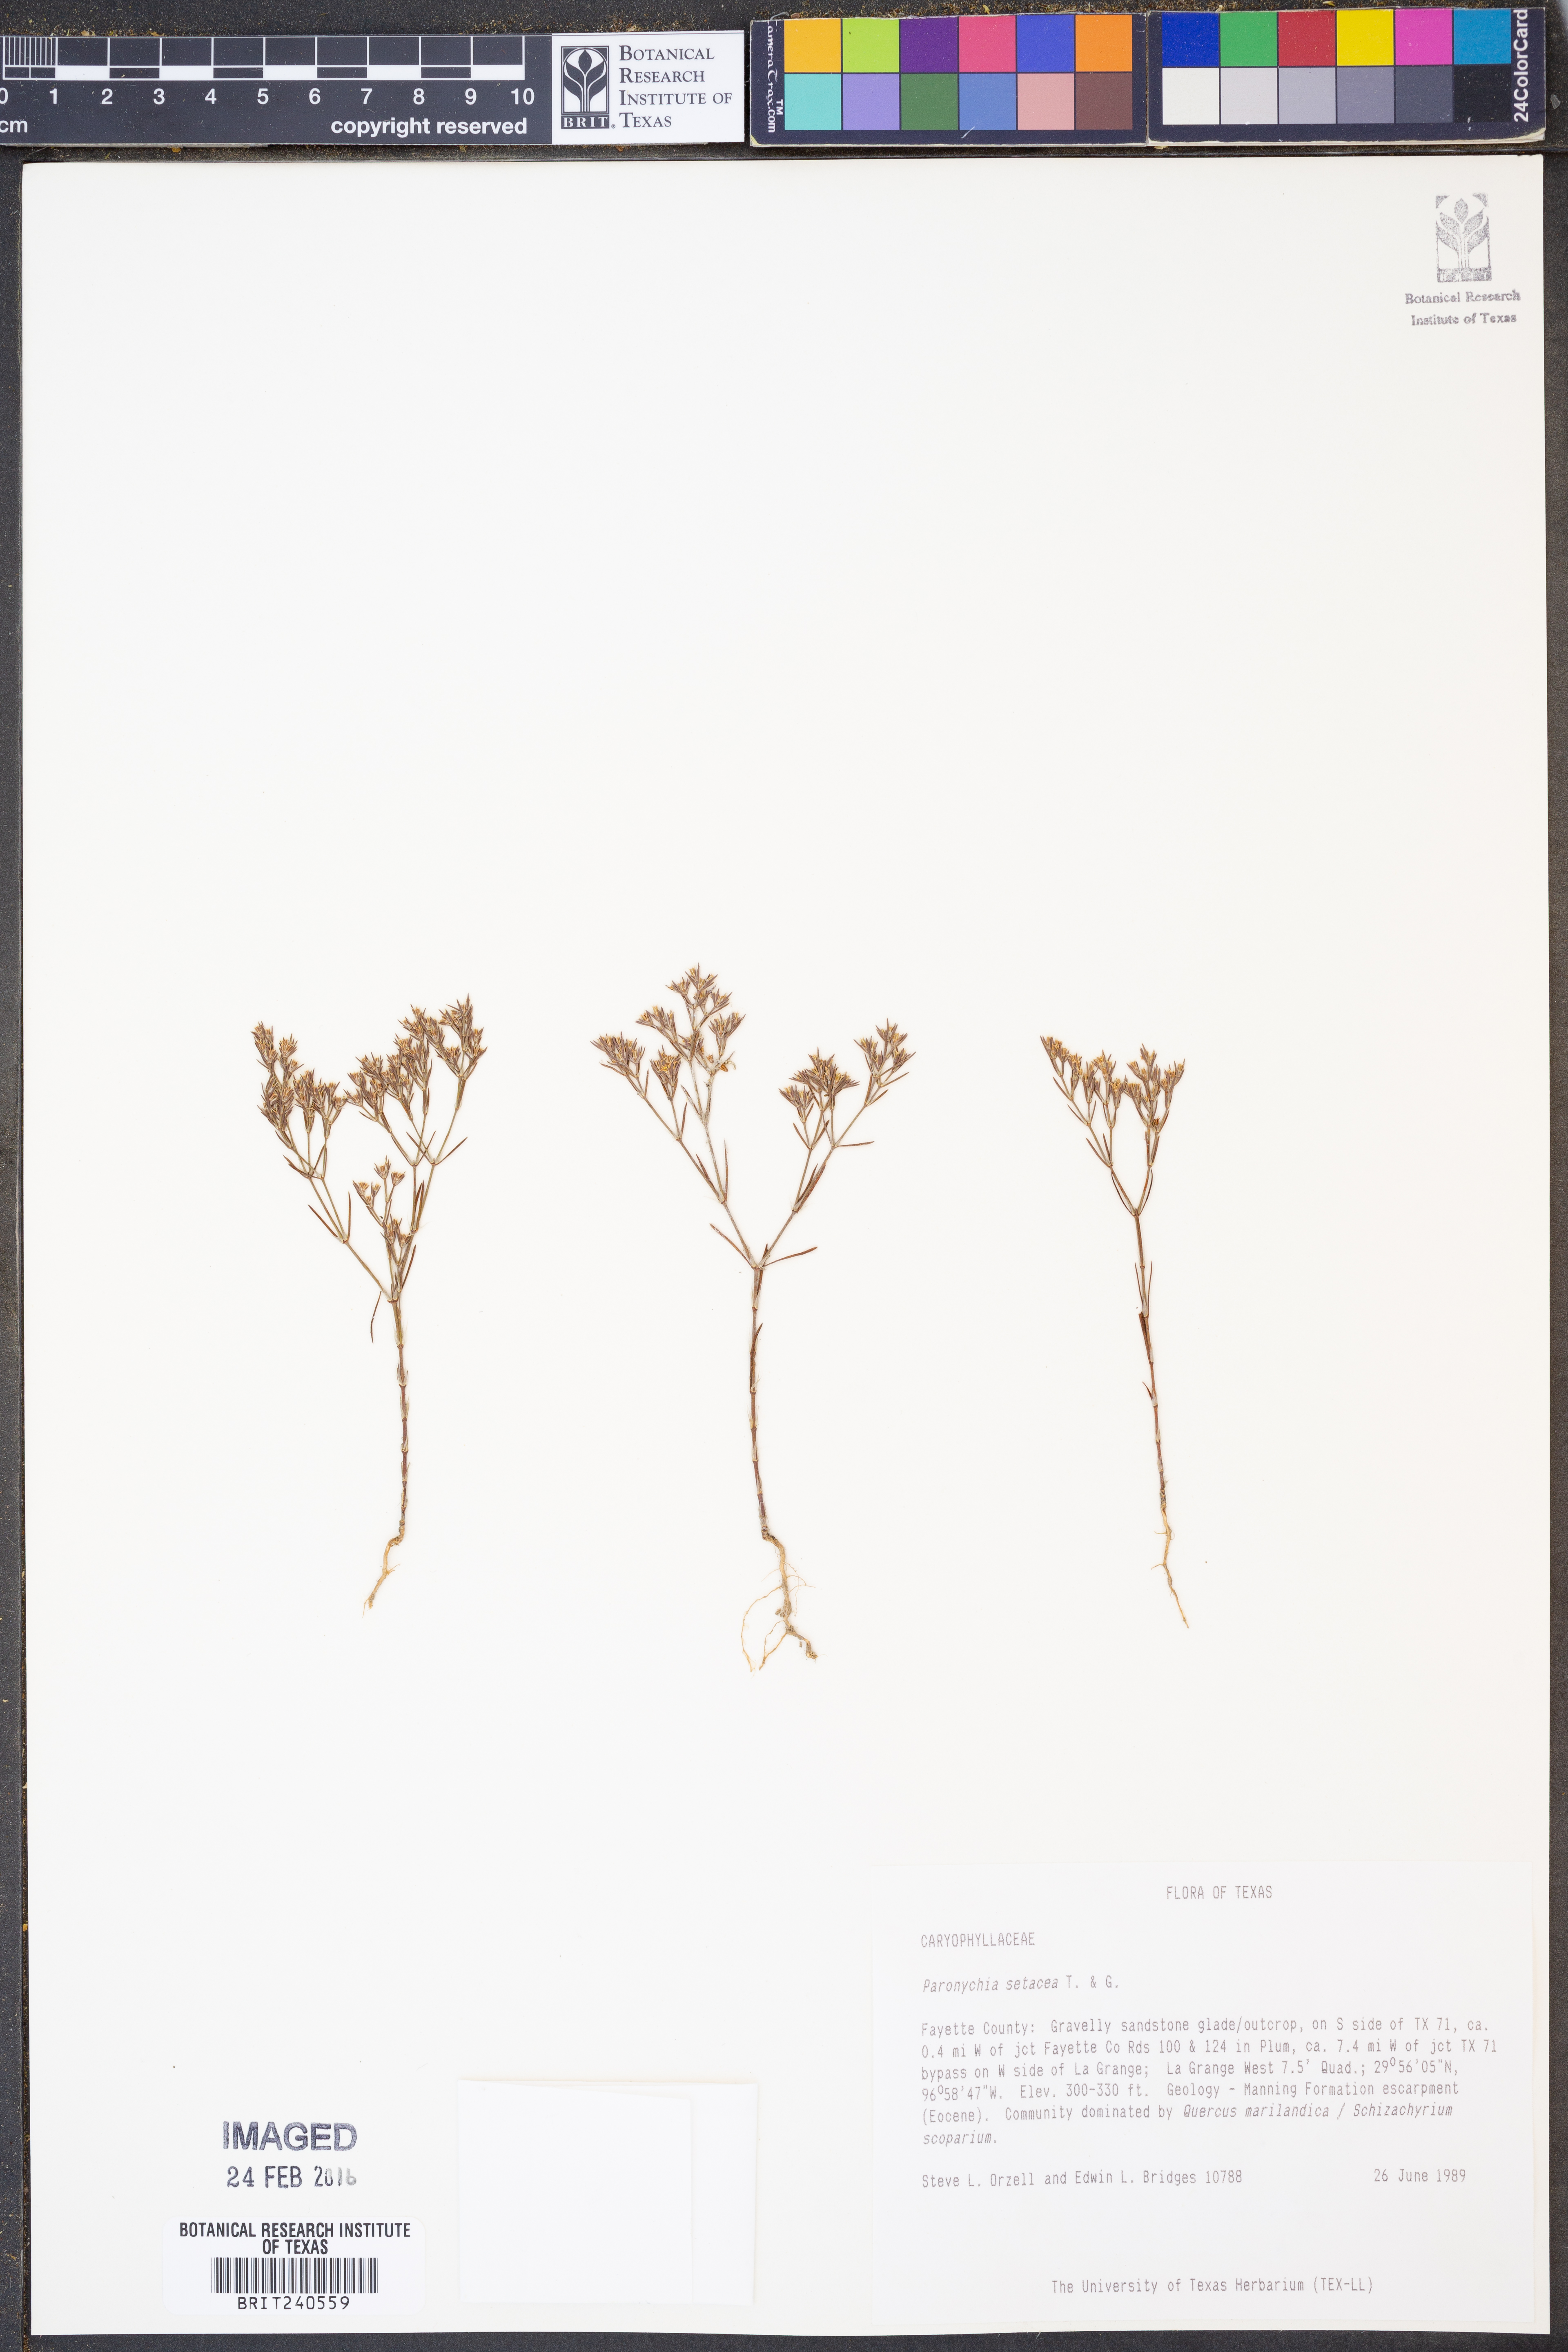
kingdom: Plantae
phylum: Tracheophyta
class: Magnoliopsida
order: Caryophyllales
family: Caryophyllaceae
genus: Paronychia
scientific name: Paronychia setacea
